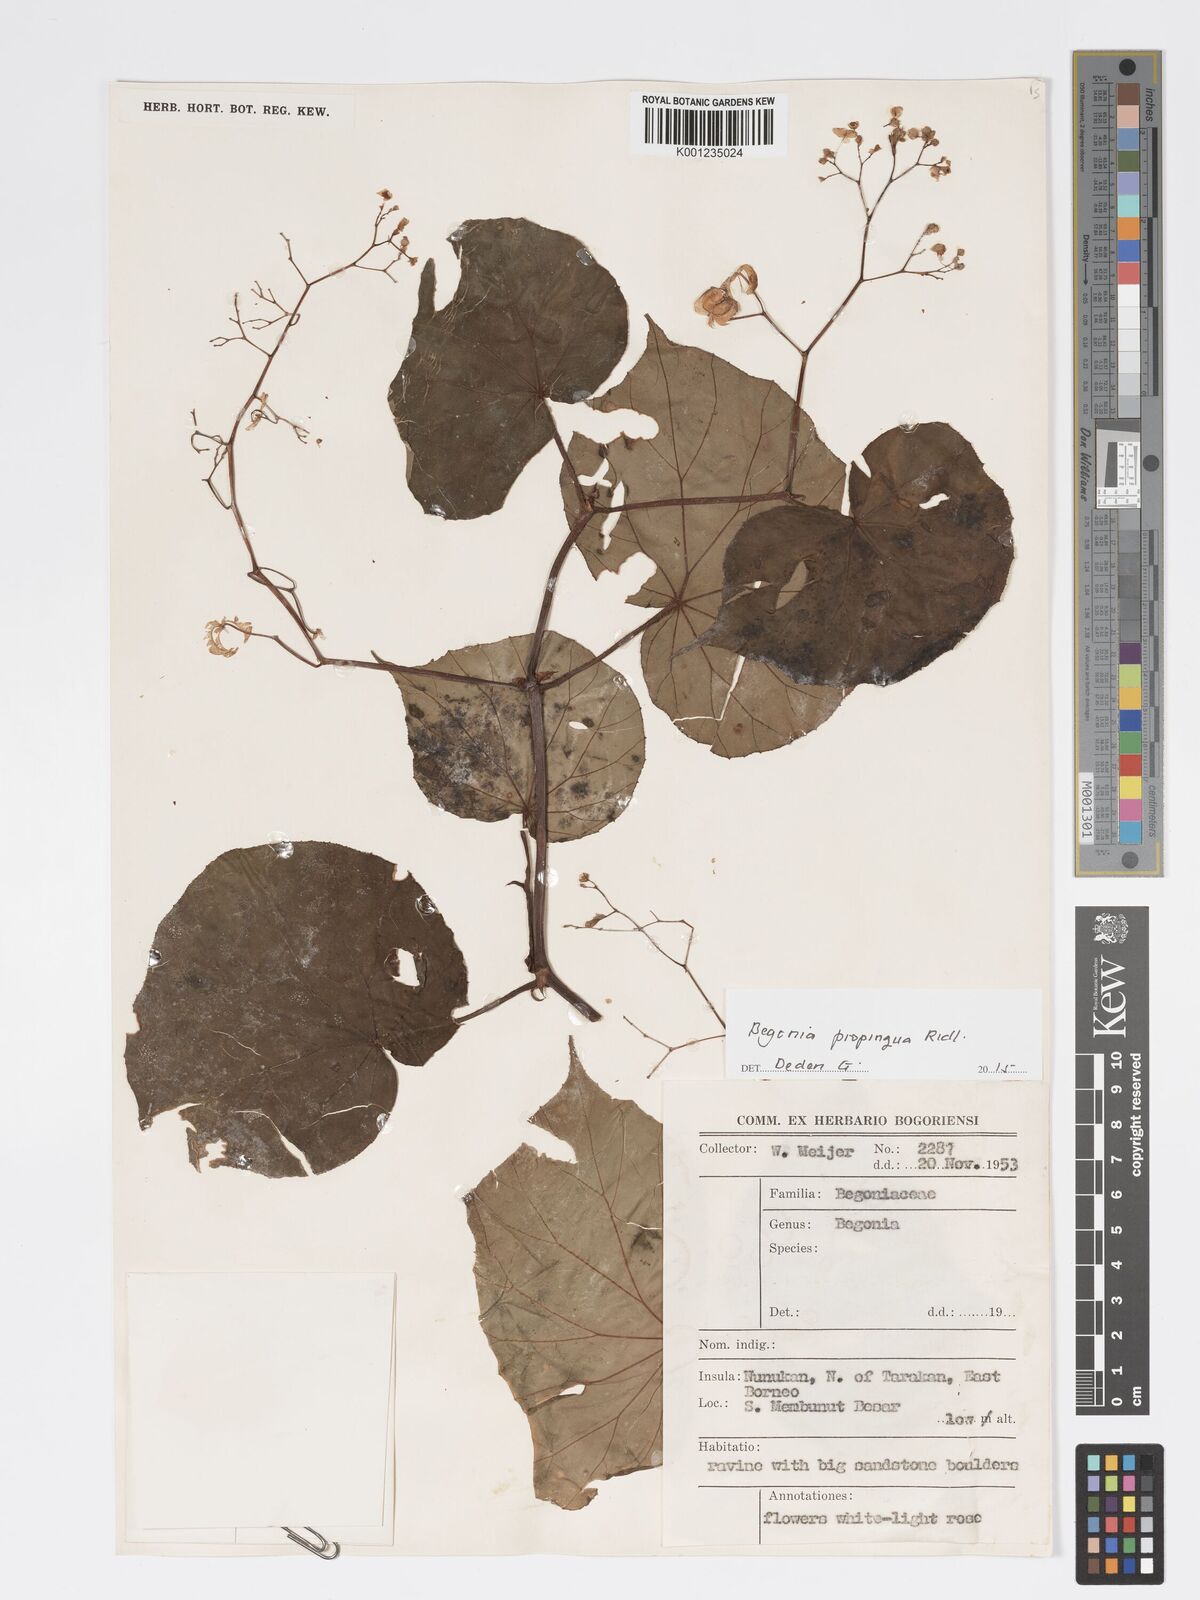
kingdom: Plantae
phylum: Tracheophyta
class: Magnoliopsida
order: Cucurbitales
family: Begoniaceae
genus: Begonia
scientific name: Begonia propinqua
